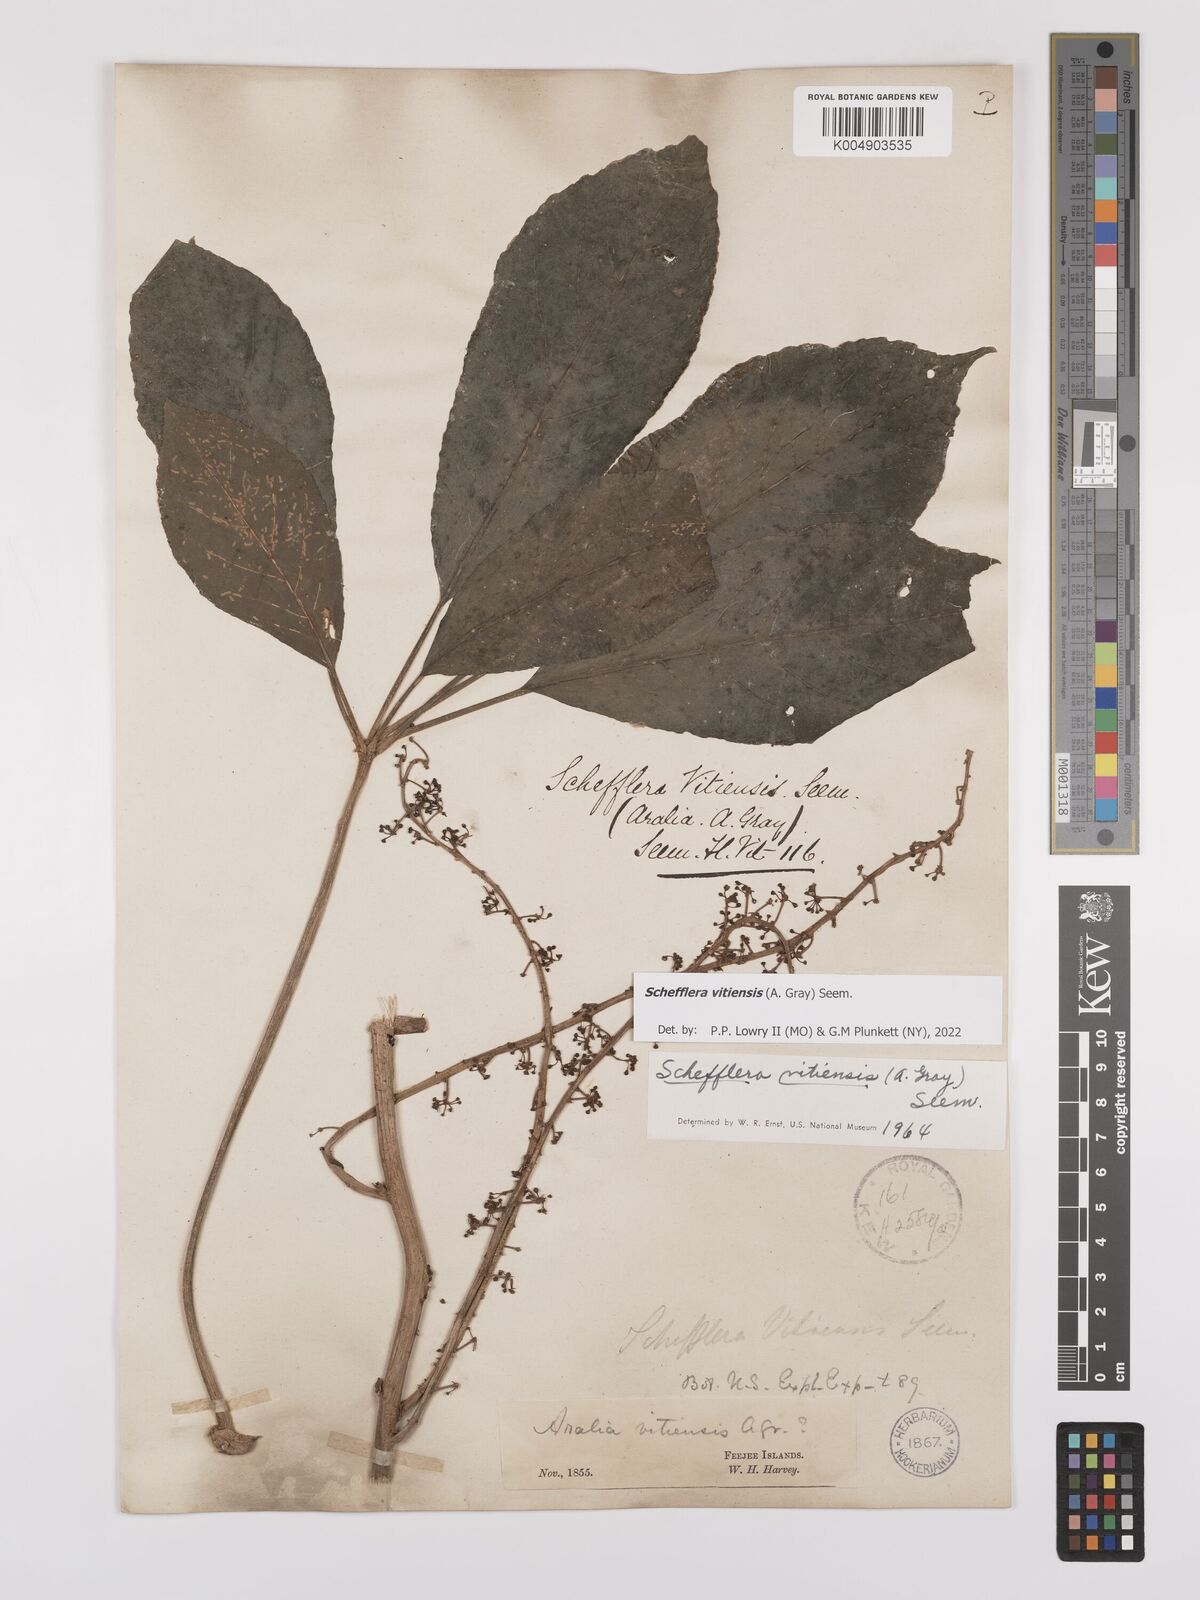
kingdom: Plantae
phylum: Tracheophyta
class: Magnoliopsida
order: Apiales
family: Araliaceae
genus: Schefflera
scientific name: Schefflera vitiensis
